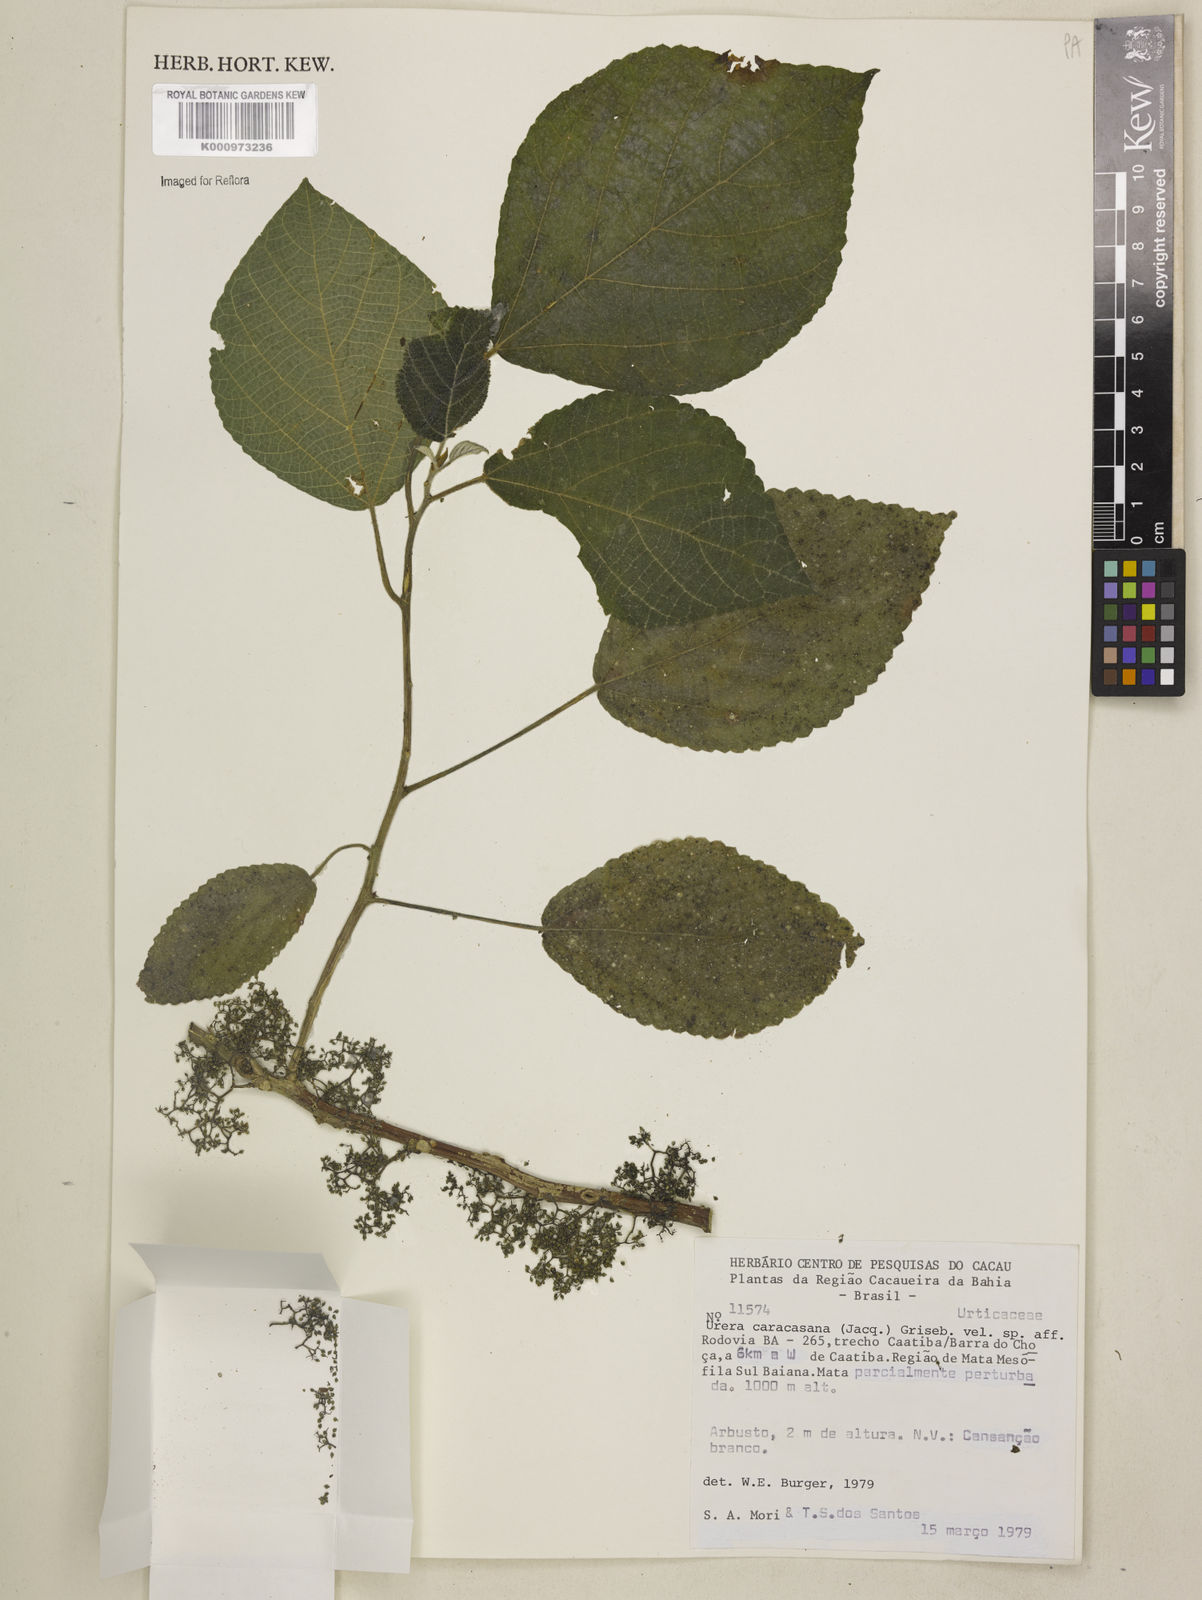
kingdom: Plantae
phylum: Tracheophyta
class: Magnoliopsida
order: Rosales
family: Urticaceae
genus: Urera
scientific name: Urera caracasana
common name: Flameberry
